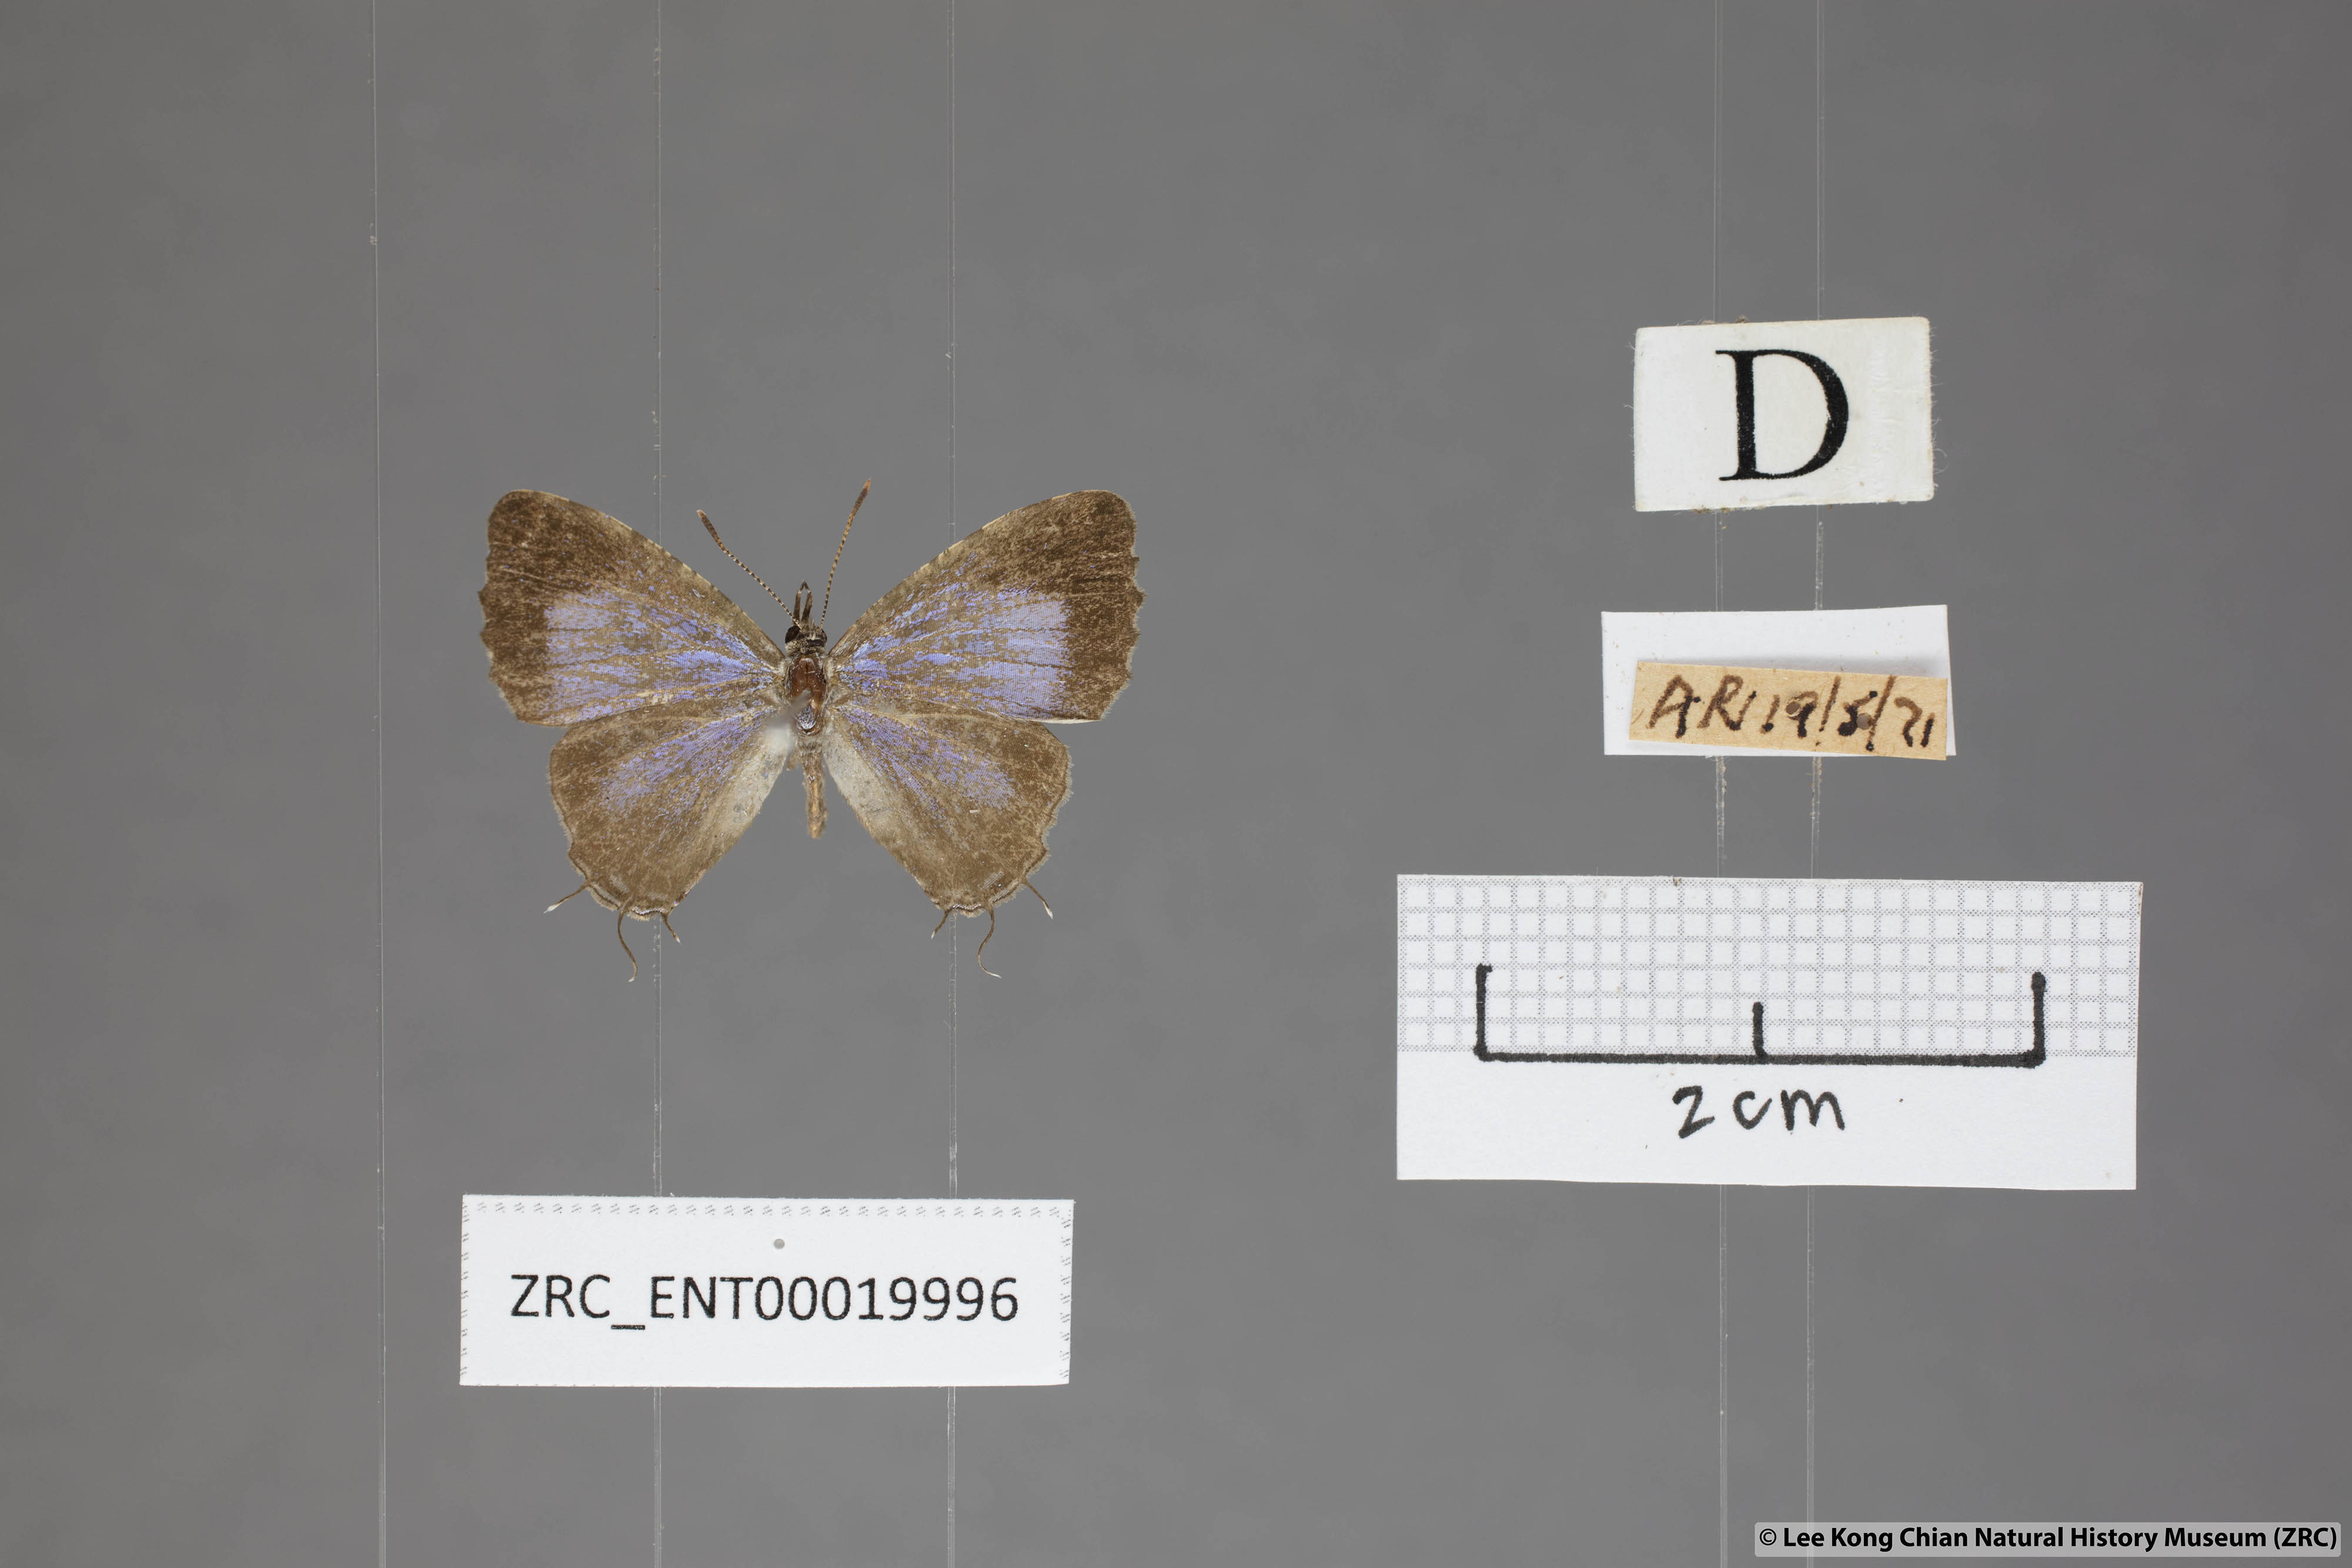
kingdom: Animalia
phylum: Arthropoda
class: Insecta
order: Lepidoptera
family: Lycaenidae
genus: Catapaecilma
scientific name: Catapaecilma elegans
